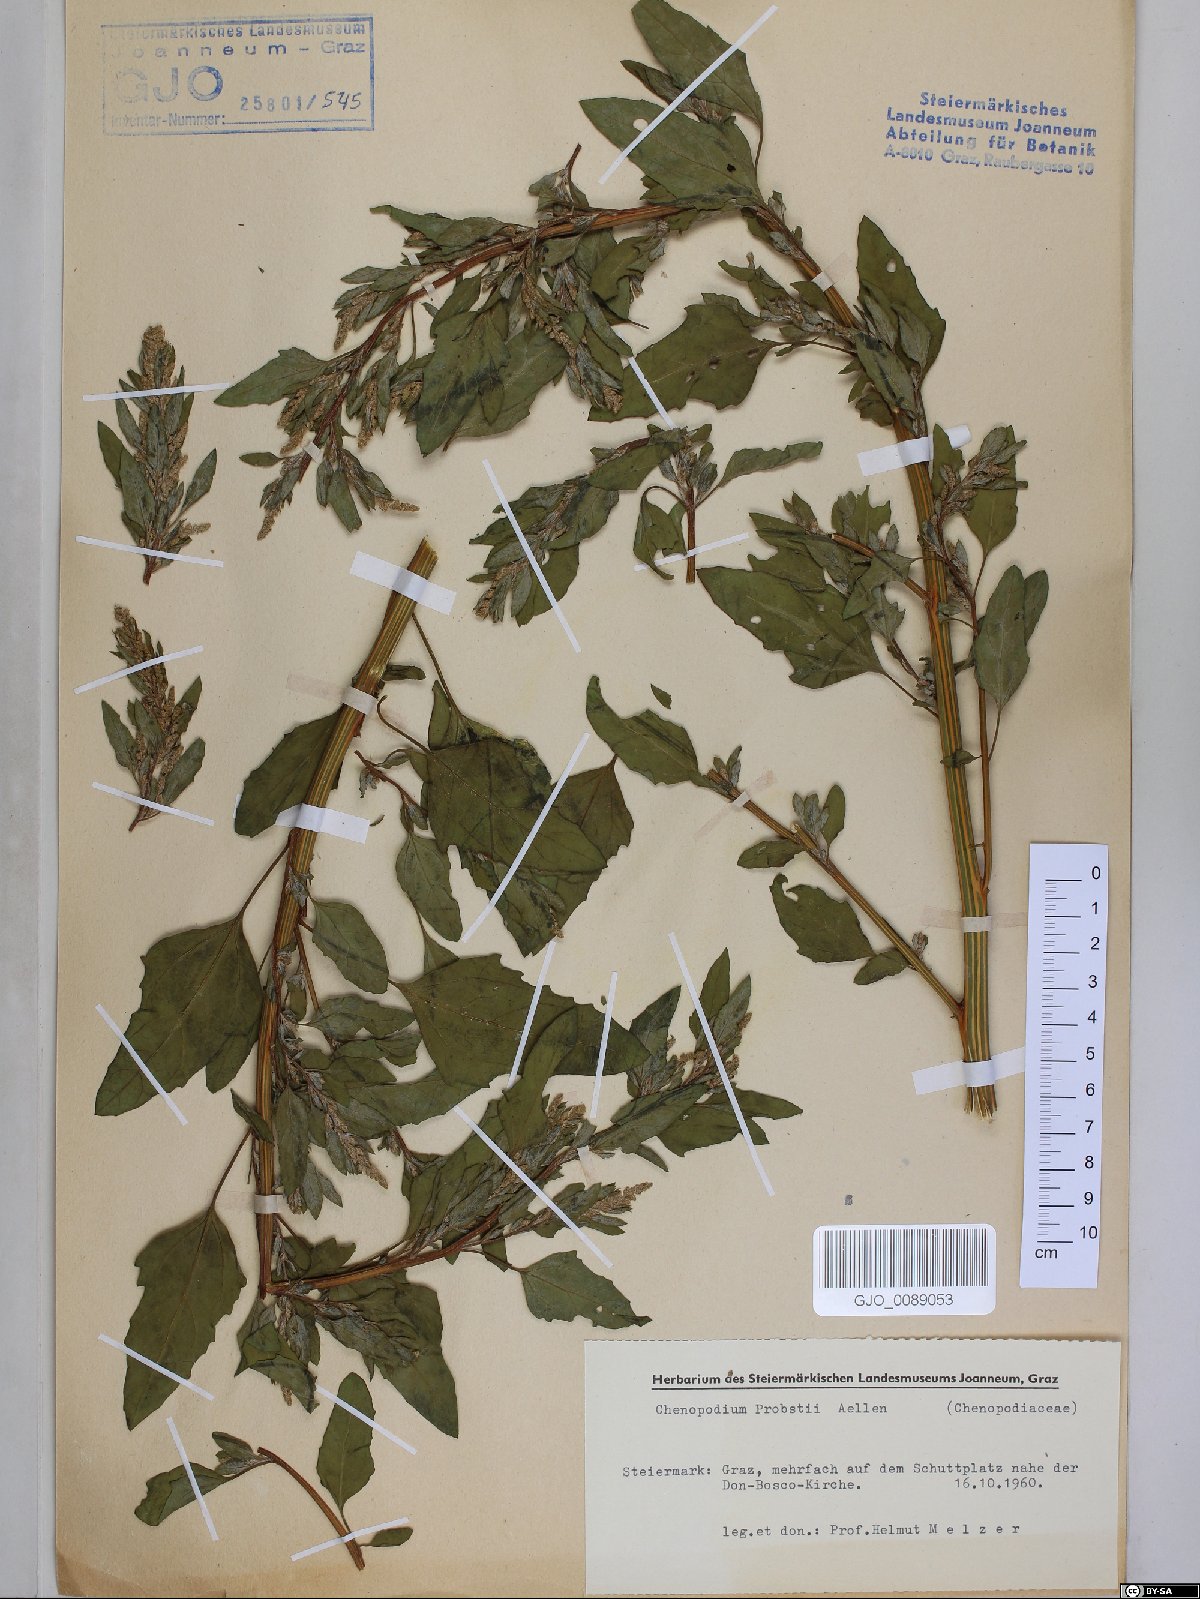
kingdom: Plantae
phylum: Tracheophyta
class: Magnoliopsida
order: Caryophyllales
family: Amaranthaceae
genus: Chenopodium
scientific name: Chenopodium probstii
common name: Probst's goosefoot
